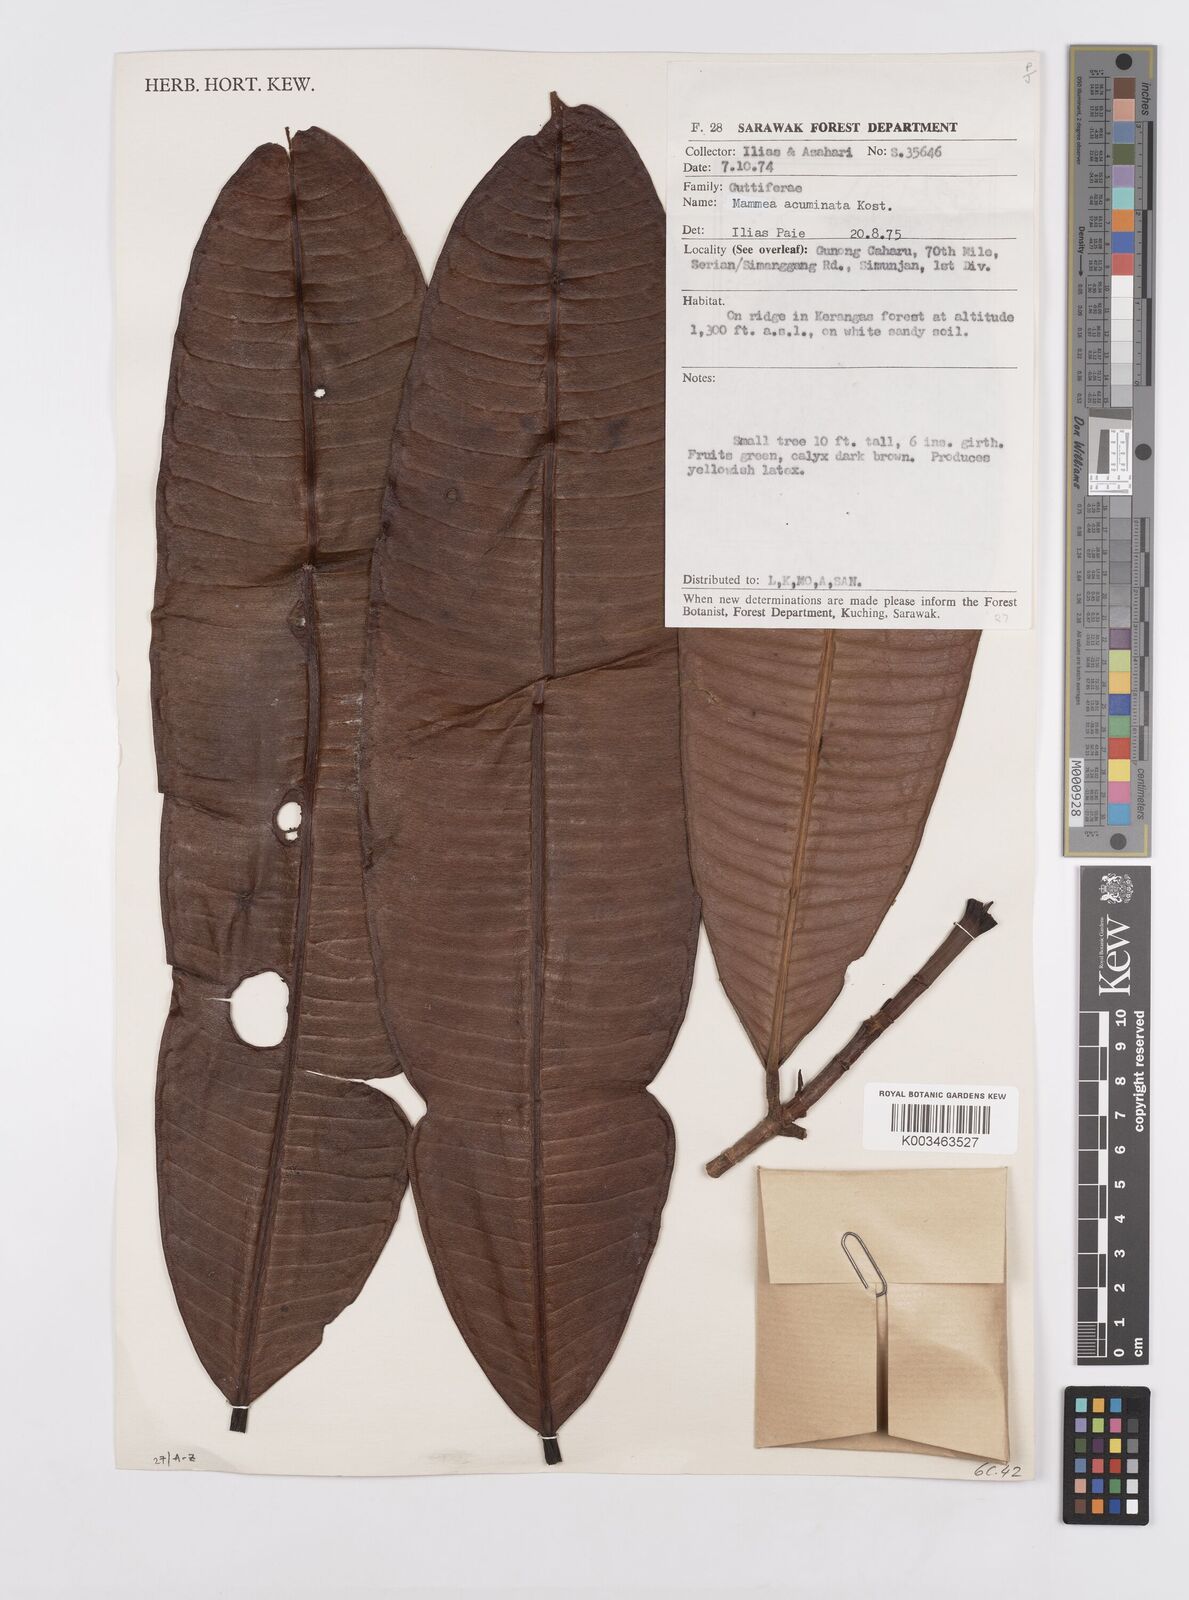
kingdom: Plantae
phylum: Tracheophyta
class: Magnoliopsida
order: Malpighiales
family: Calophyllaceae
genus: Mammea
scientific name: Mammea acuminata
